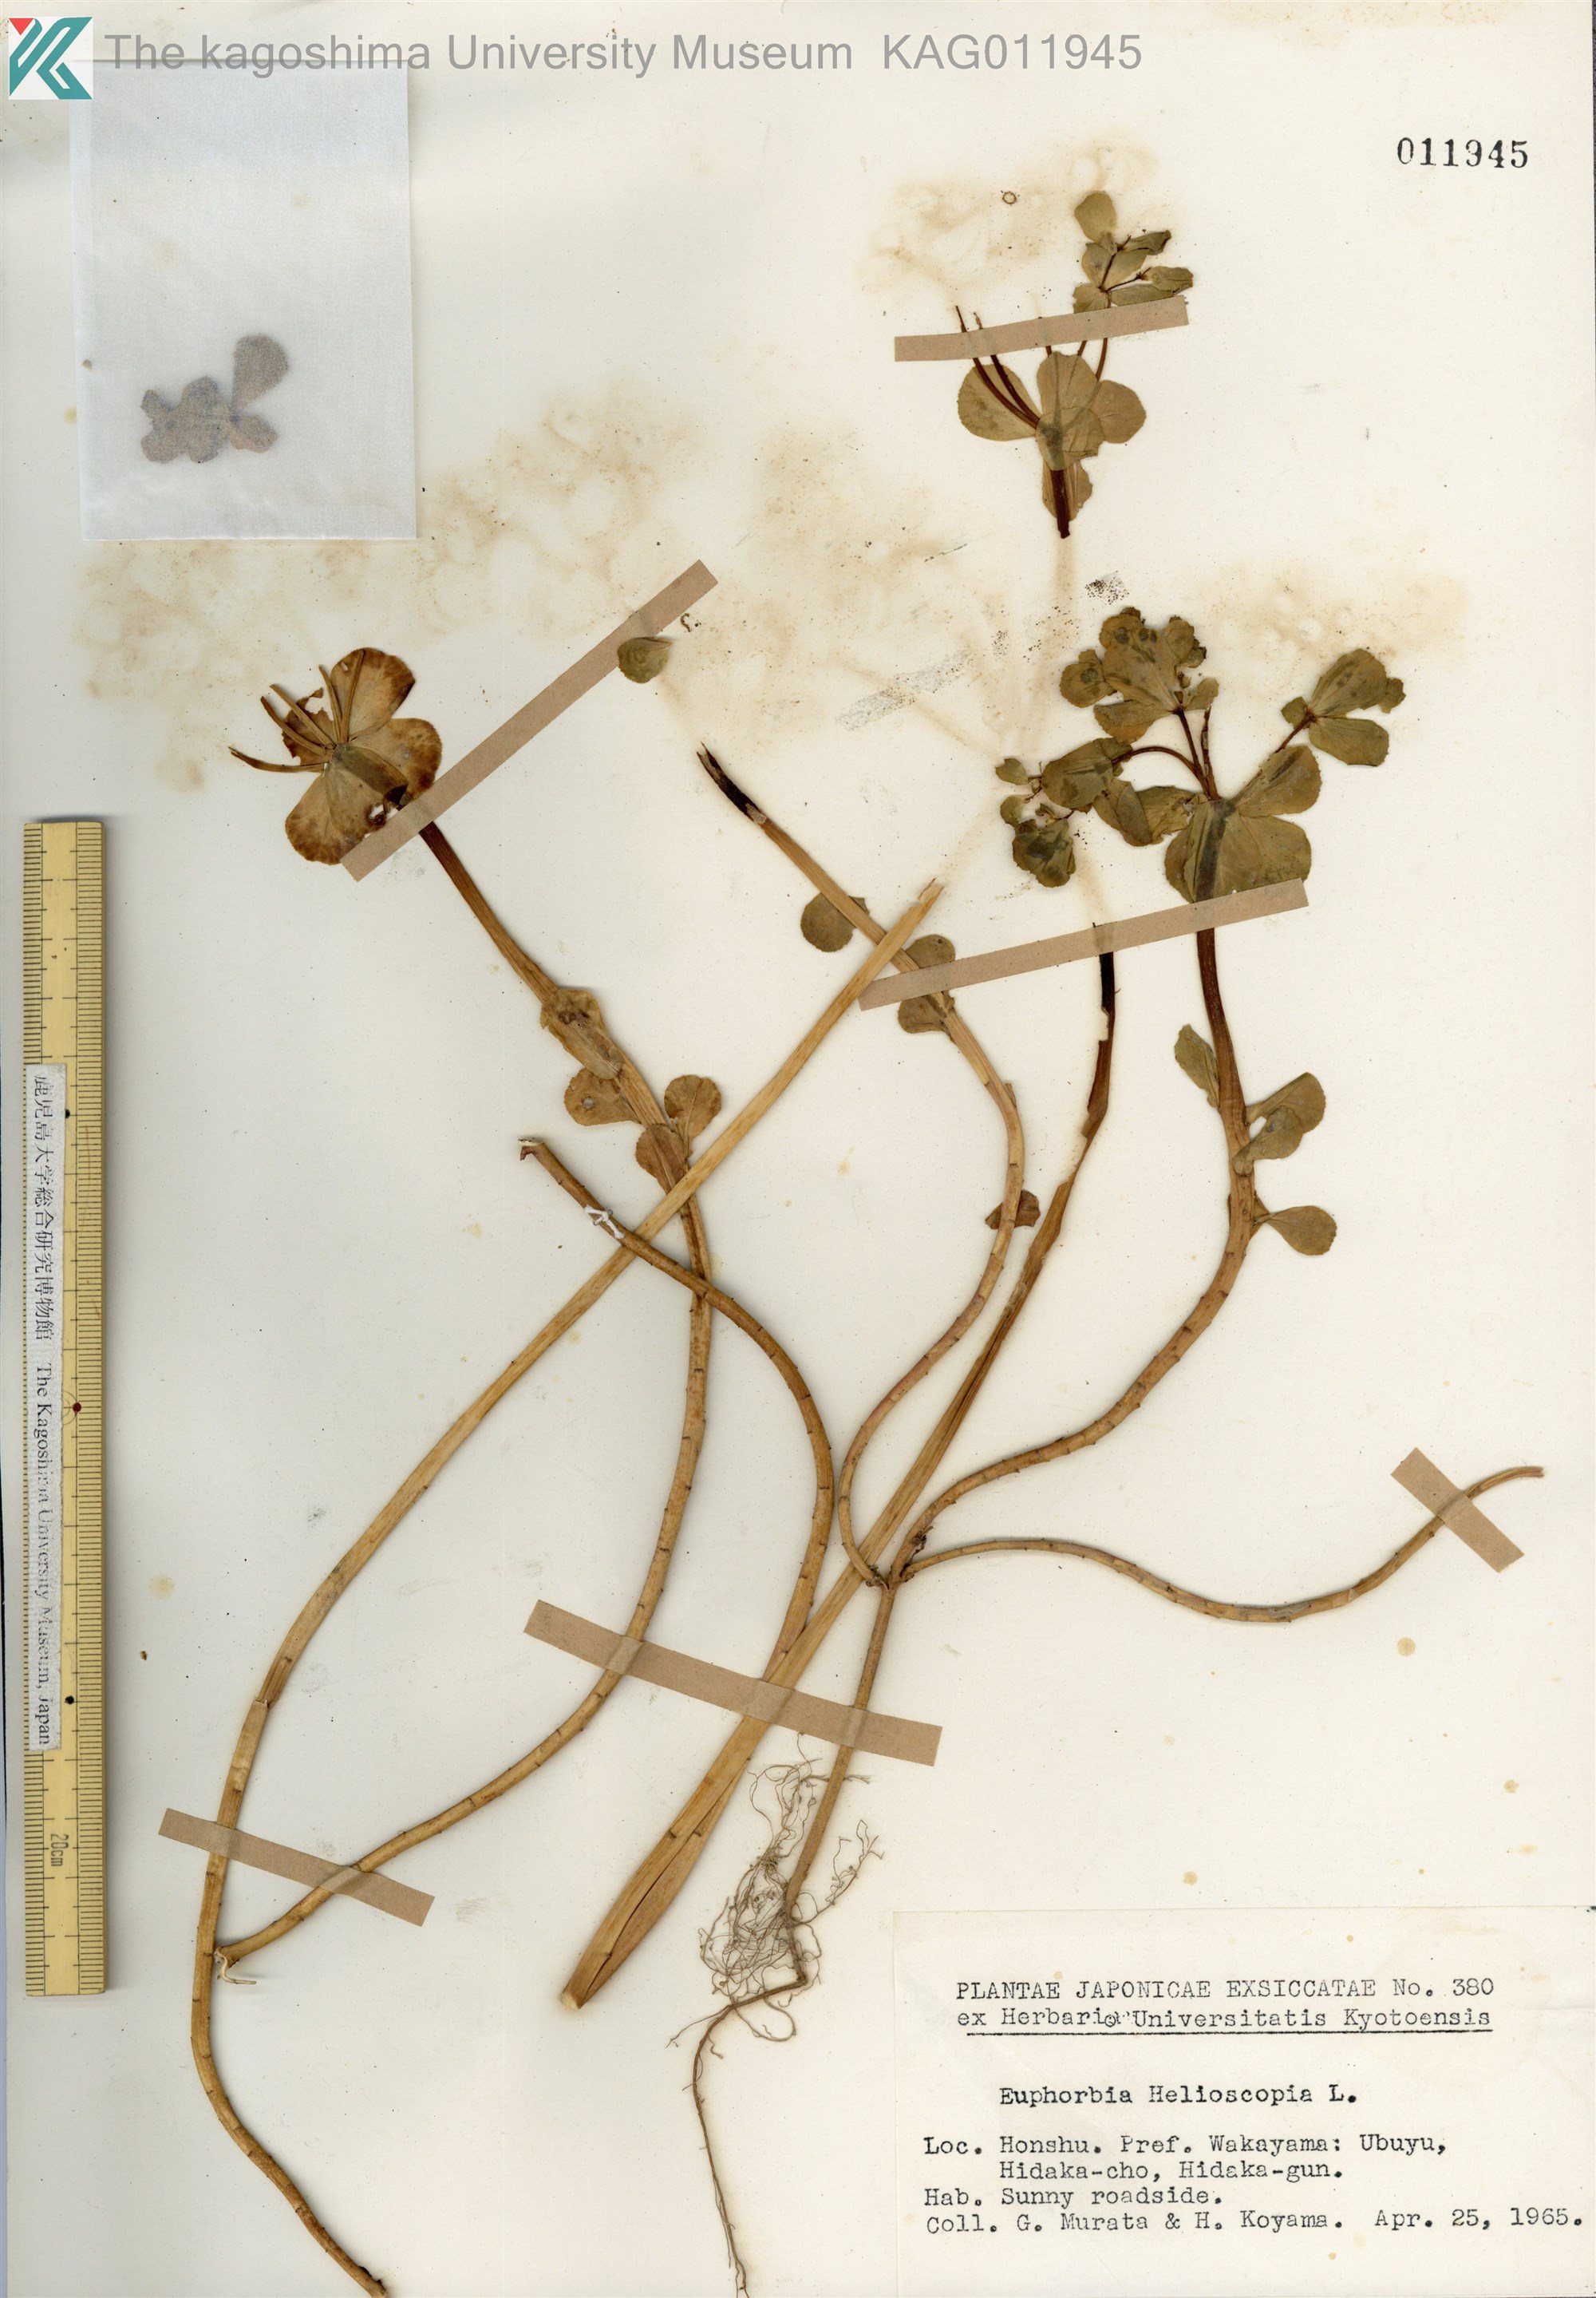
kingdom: Plantae
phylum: Tracheophyta
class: Magnoliopsida
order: Malpighiales
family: Euphorbiaceae
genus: Euphorbia
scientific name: Euphorbia helioscopia
